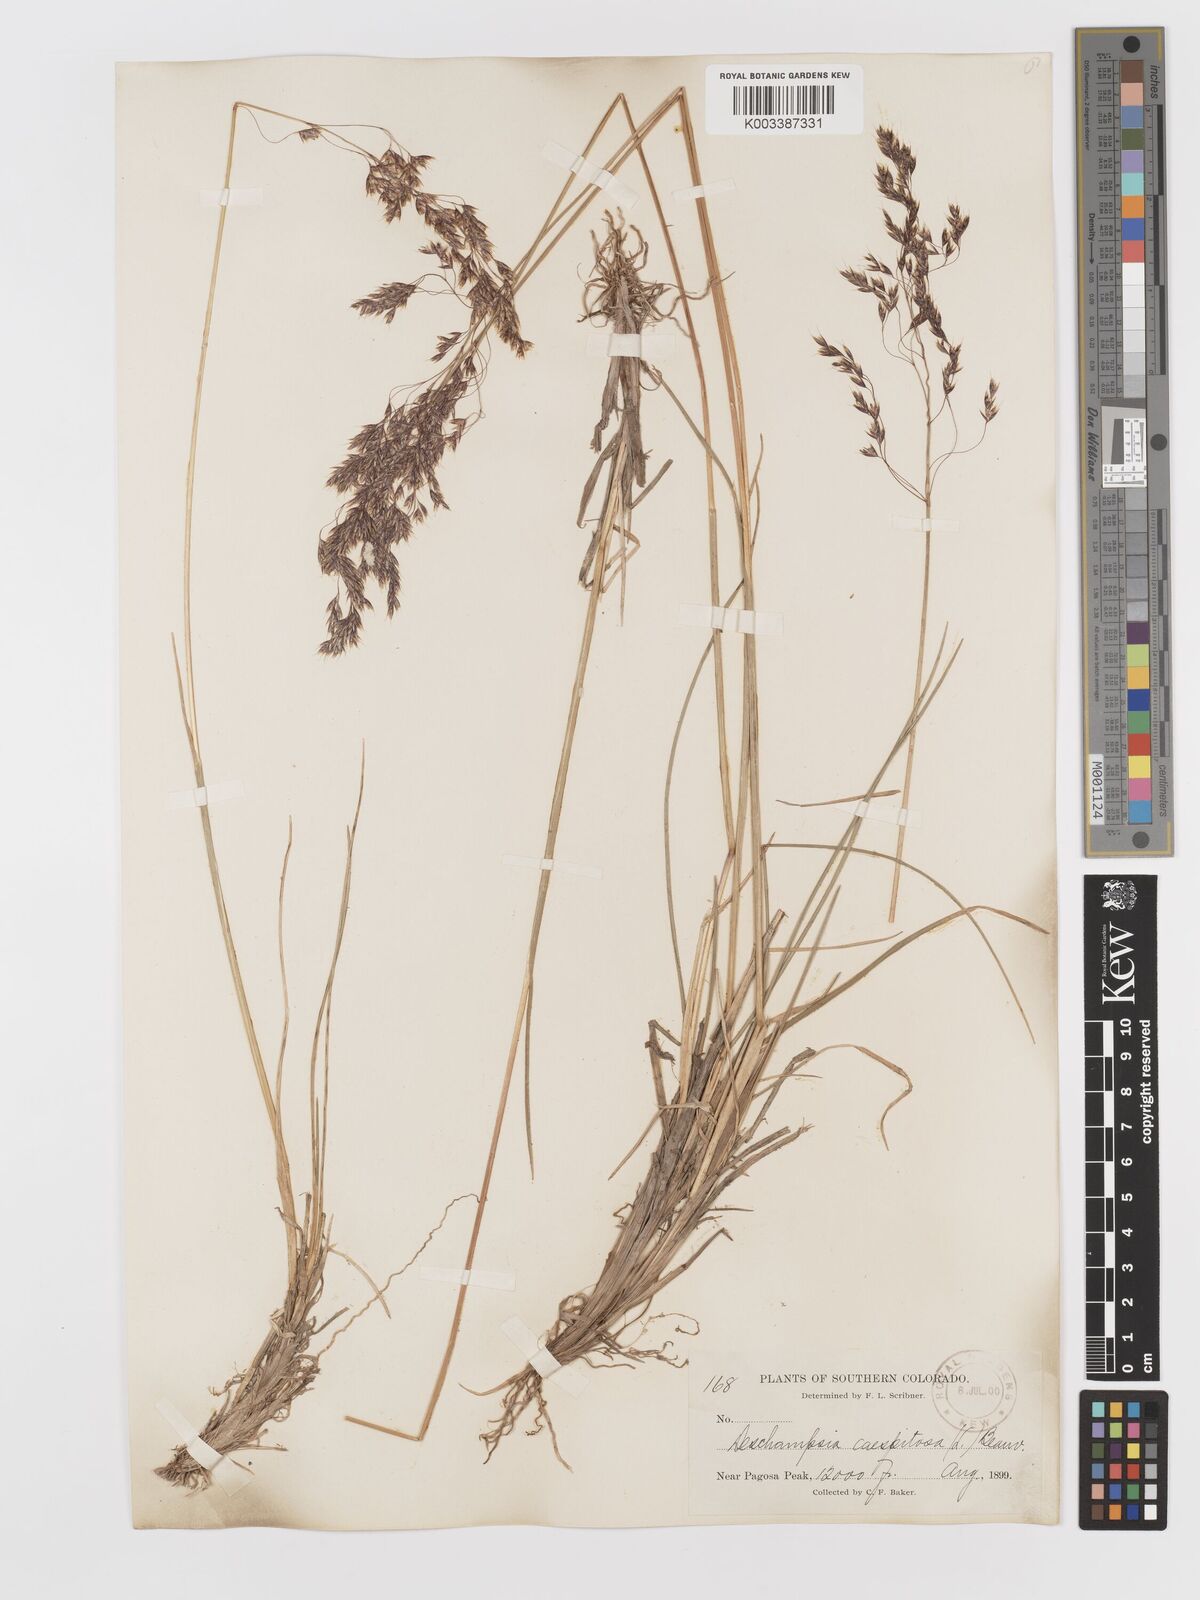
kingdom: Plantae
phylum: Tracheophyta
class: Liliopsida
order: Poales
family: Poaceae
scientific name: Poaceae
